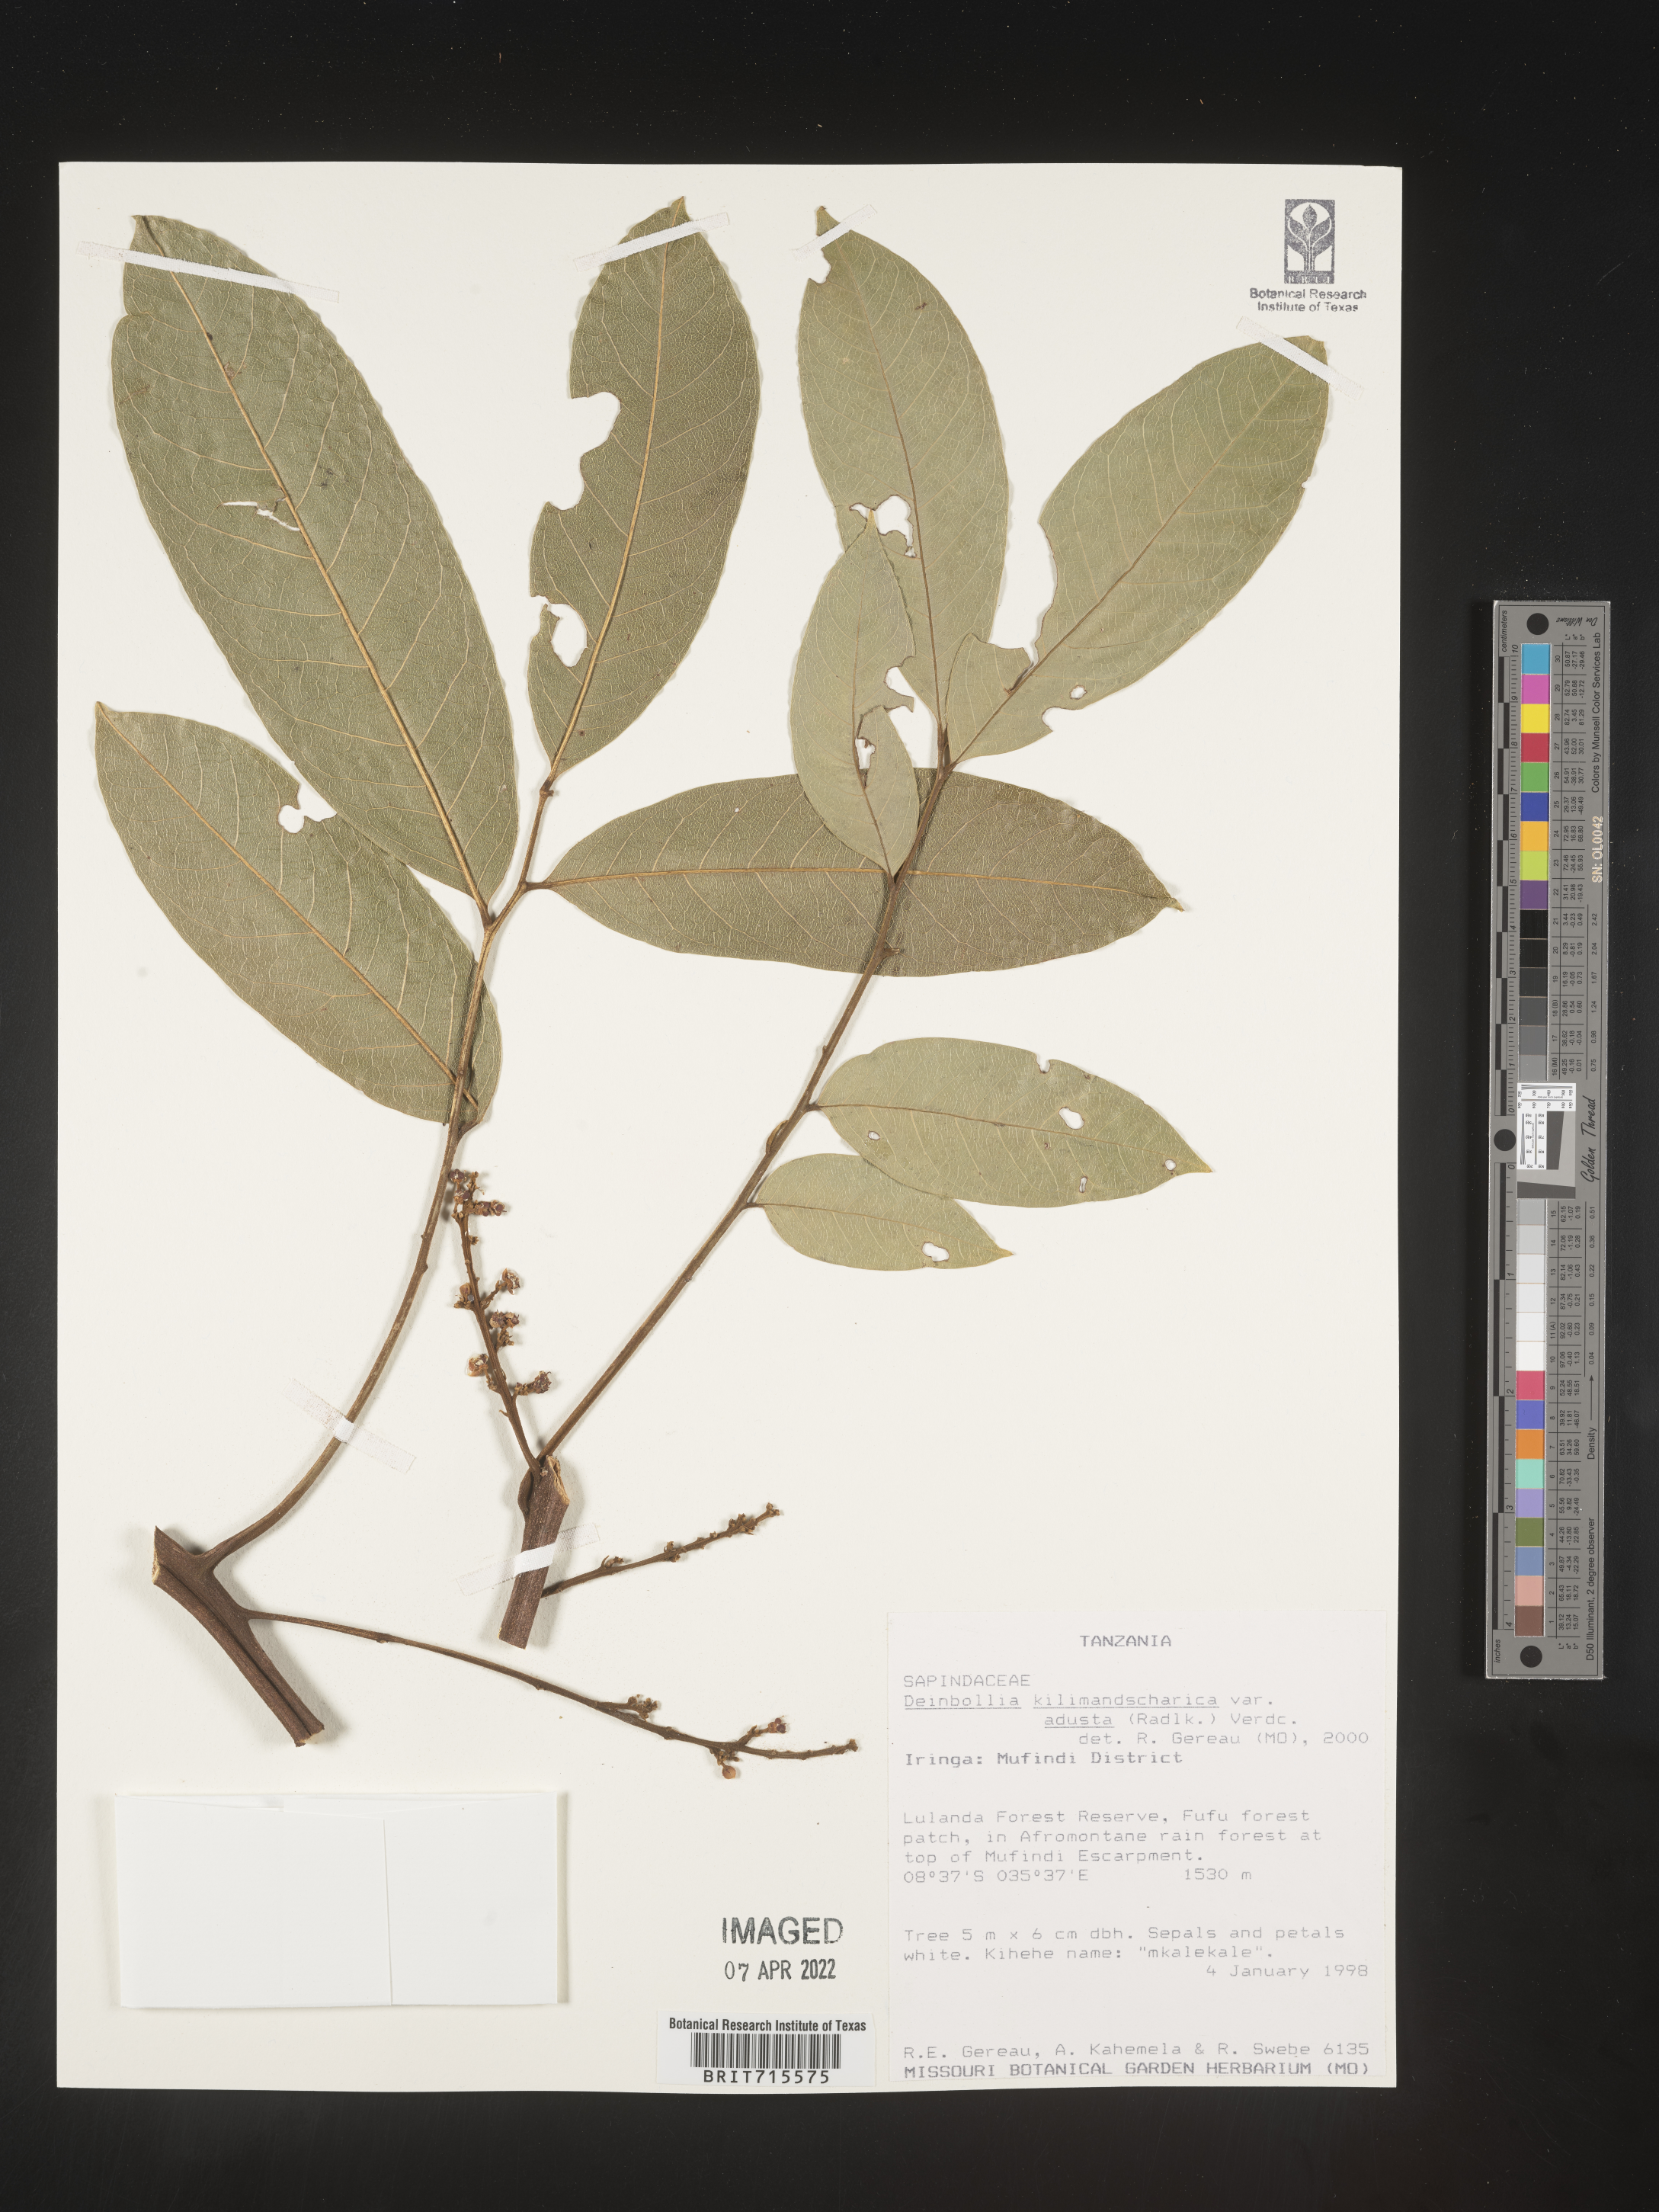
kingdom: Plantae
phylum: Tracheophyta
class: Magnoliopsida
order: Sapindales
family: Sapindaceae
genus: Deinbollia
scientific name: Deinbollia
